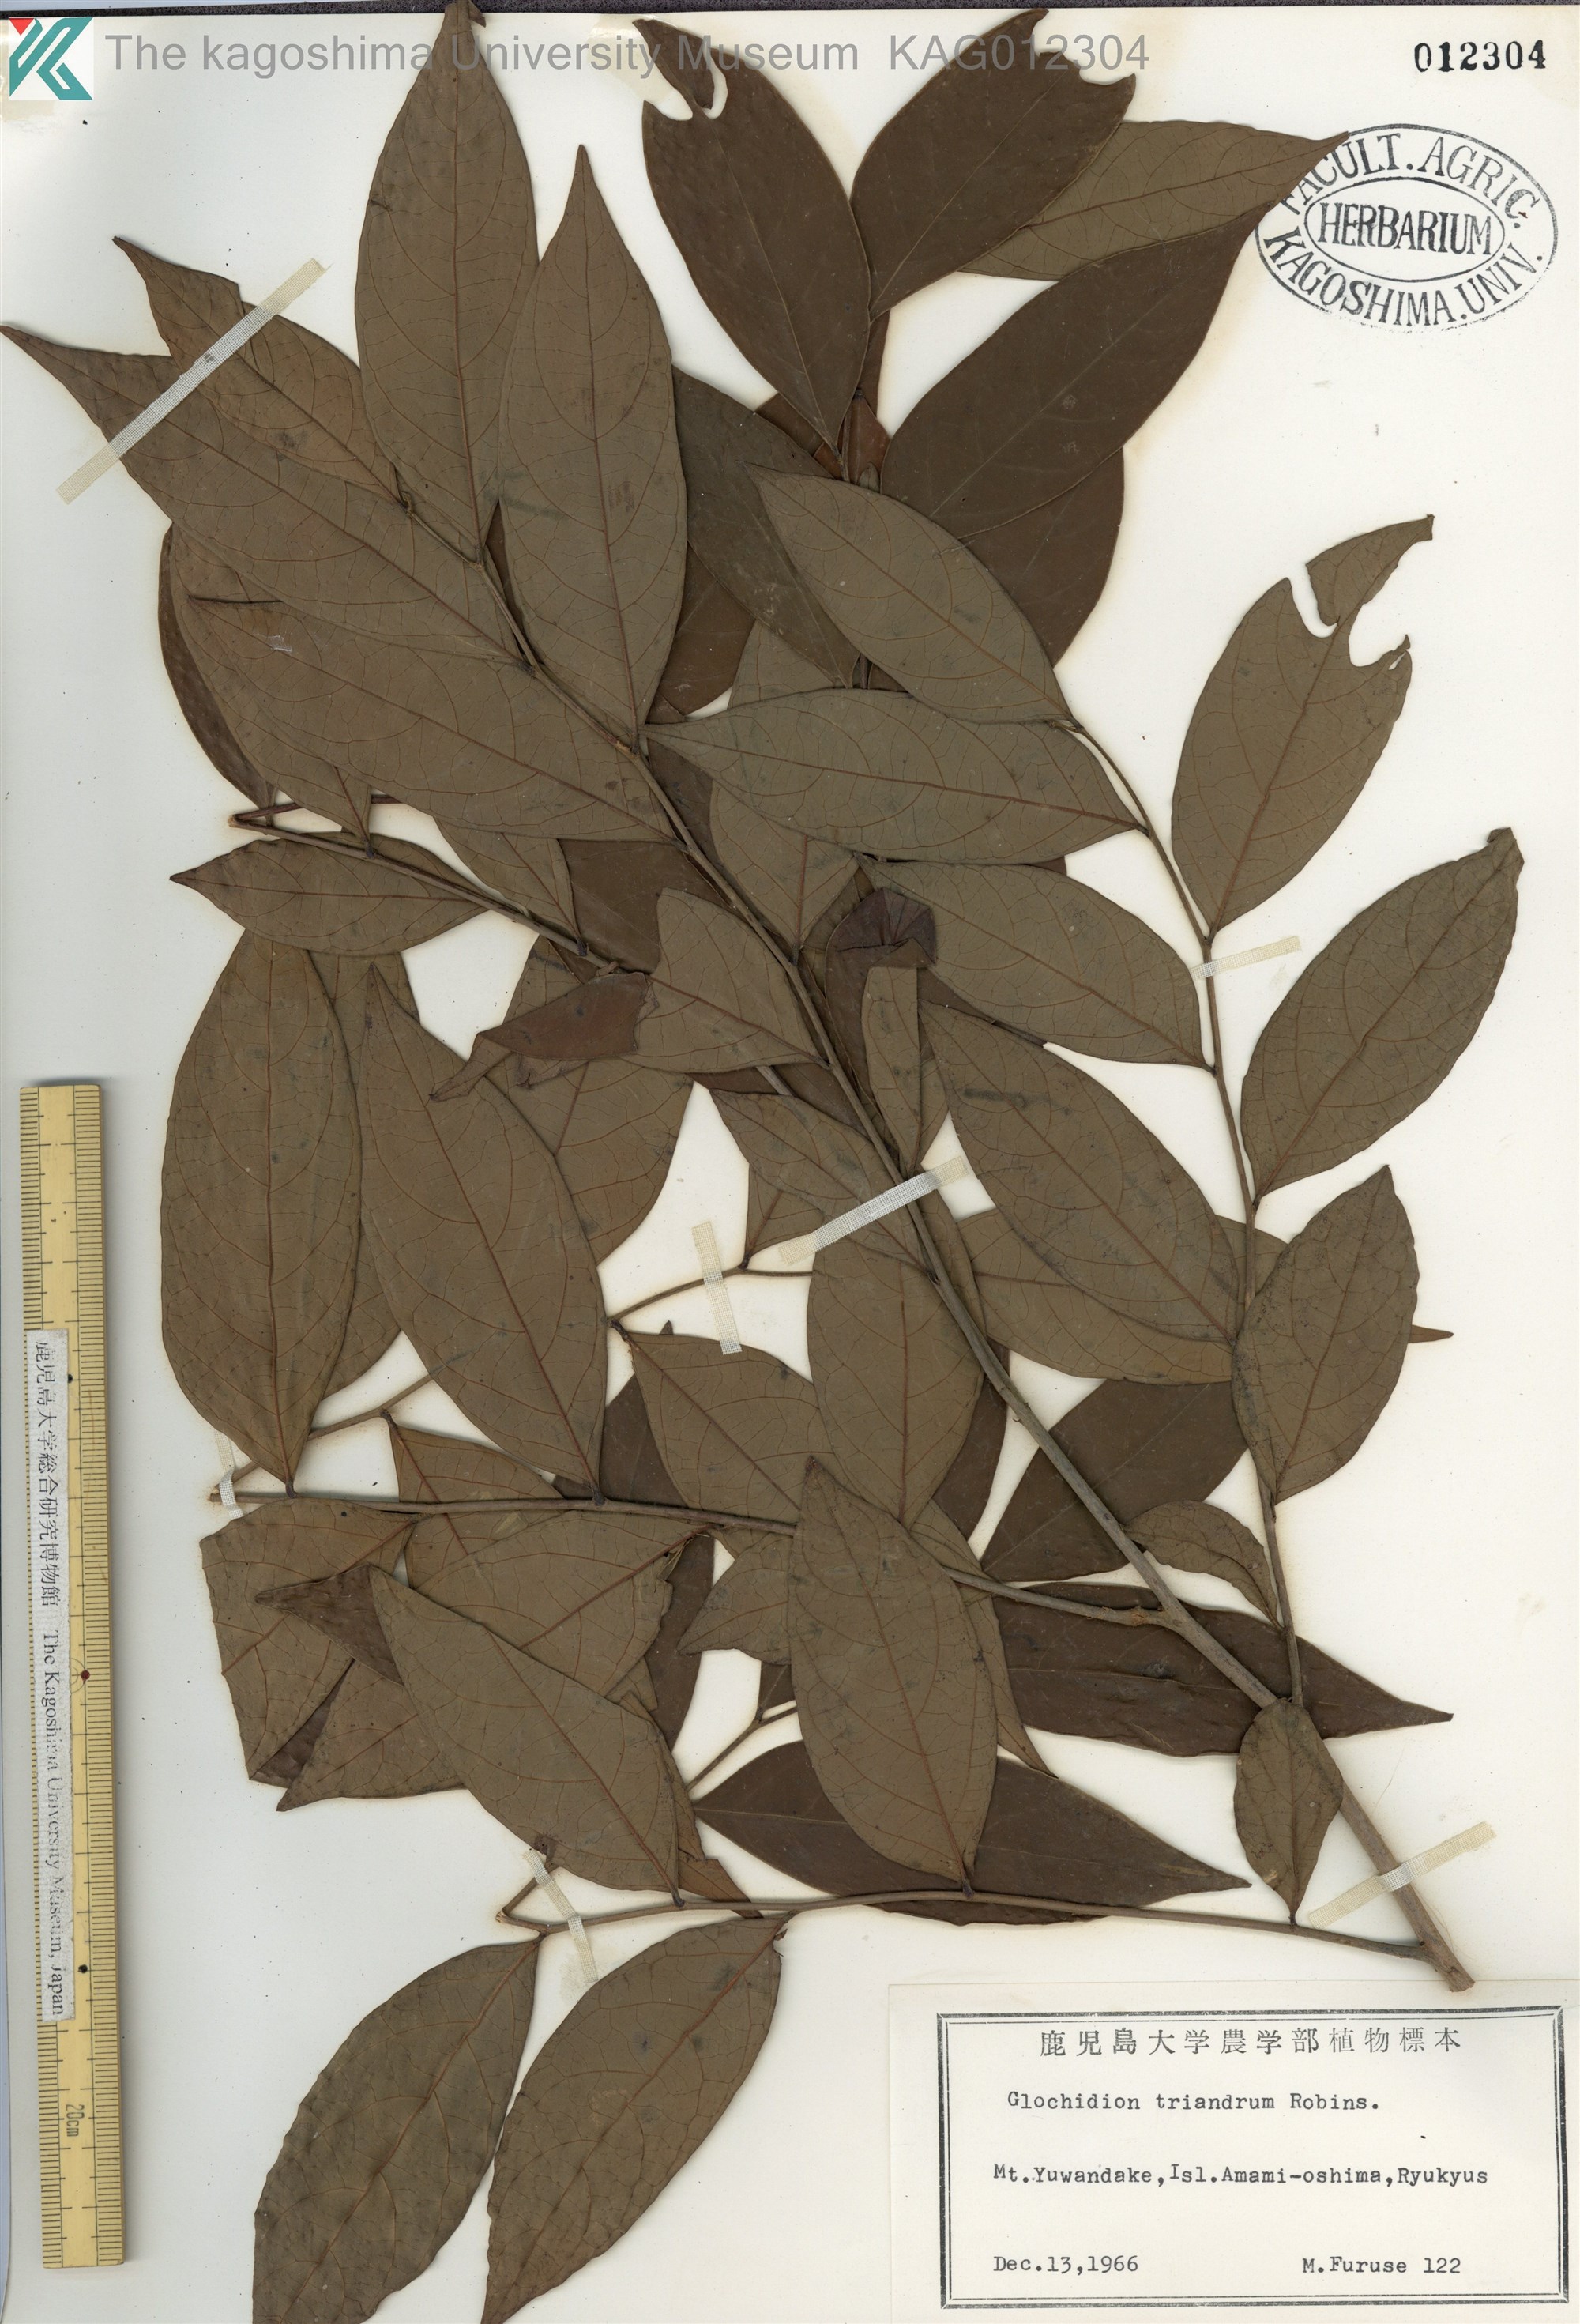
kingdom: Plantae
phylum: Tracheophyta
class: Magnoliopsida
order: Malpighiales
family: Phyllanthaceae
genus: Glochidion
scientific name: Glochidion triandrum
